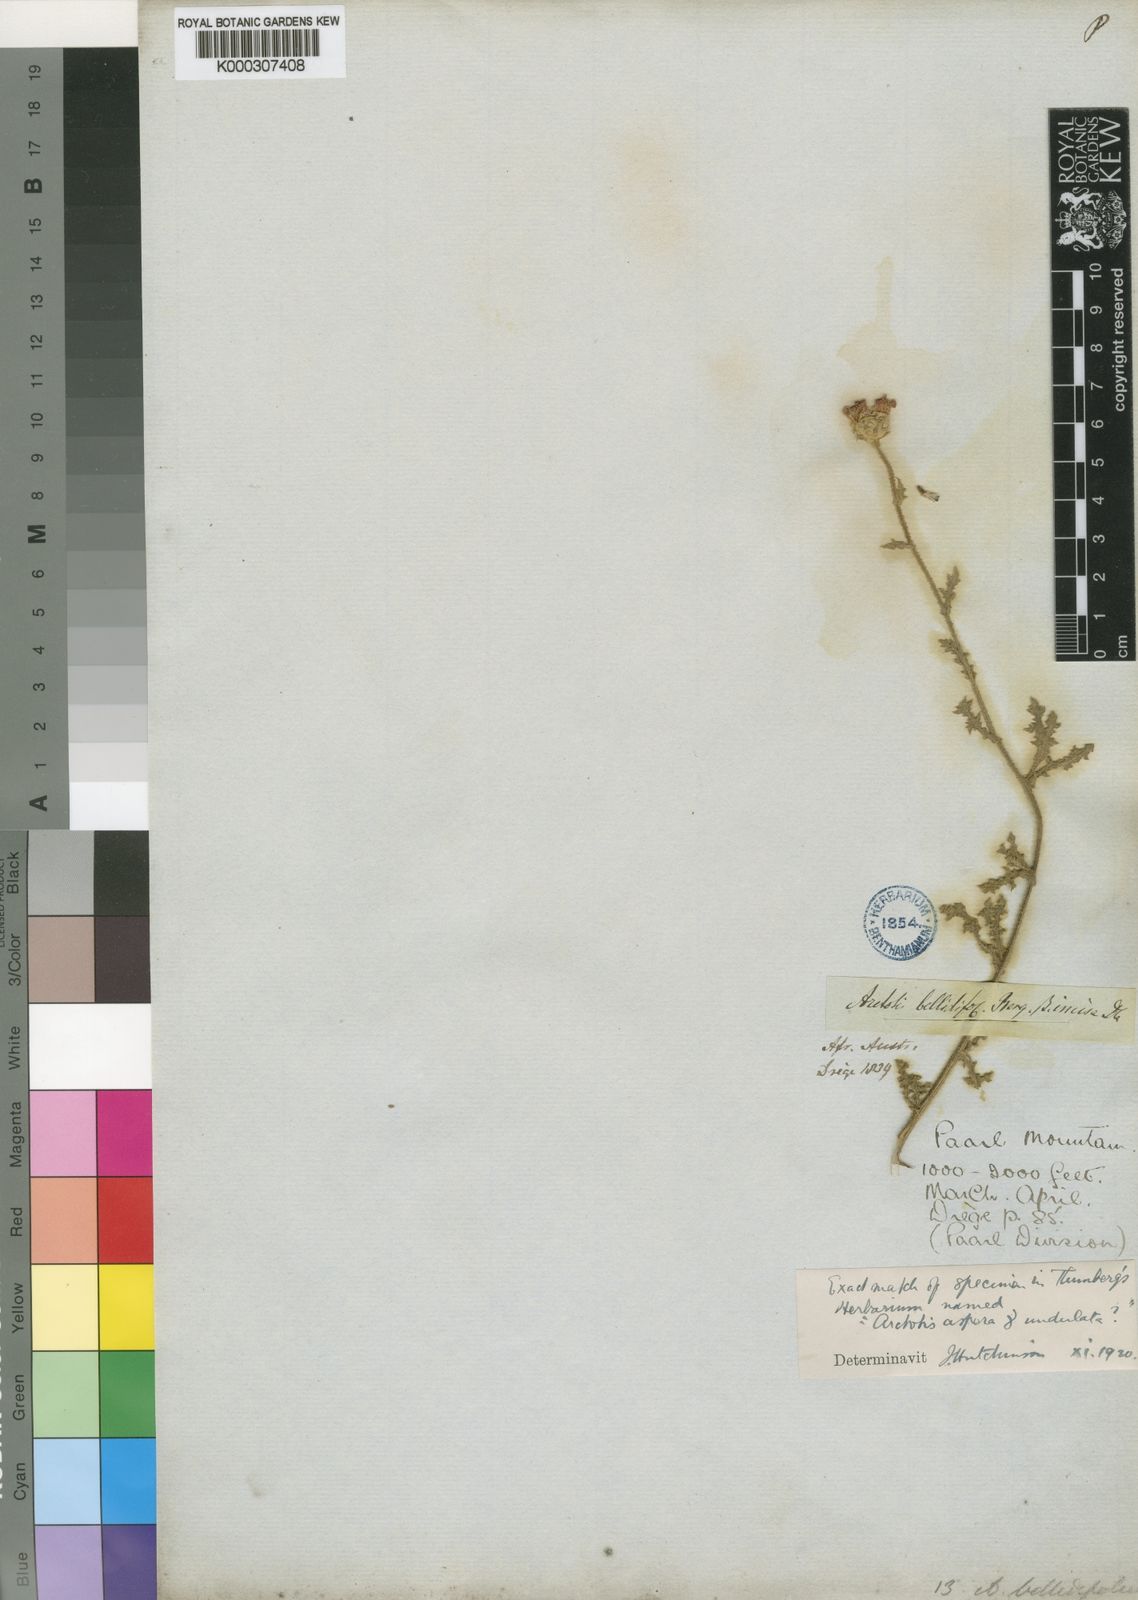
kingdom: Plantae
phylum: Tracheophyta
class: Magnoliopsida
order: Asterales
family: Asteraceae
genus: Arctotis
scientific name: Arctotis bellidifolia
